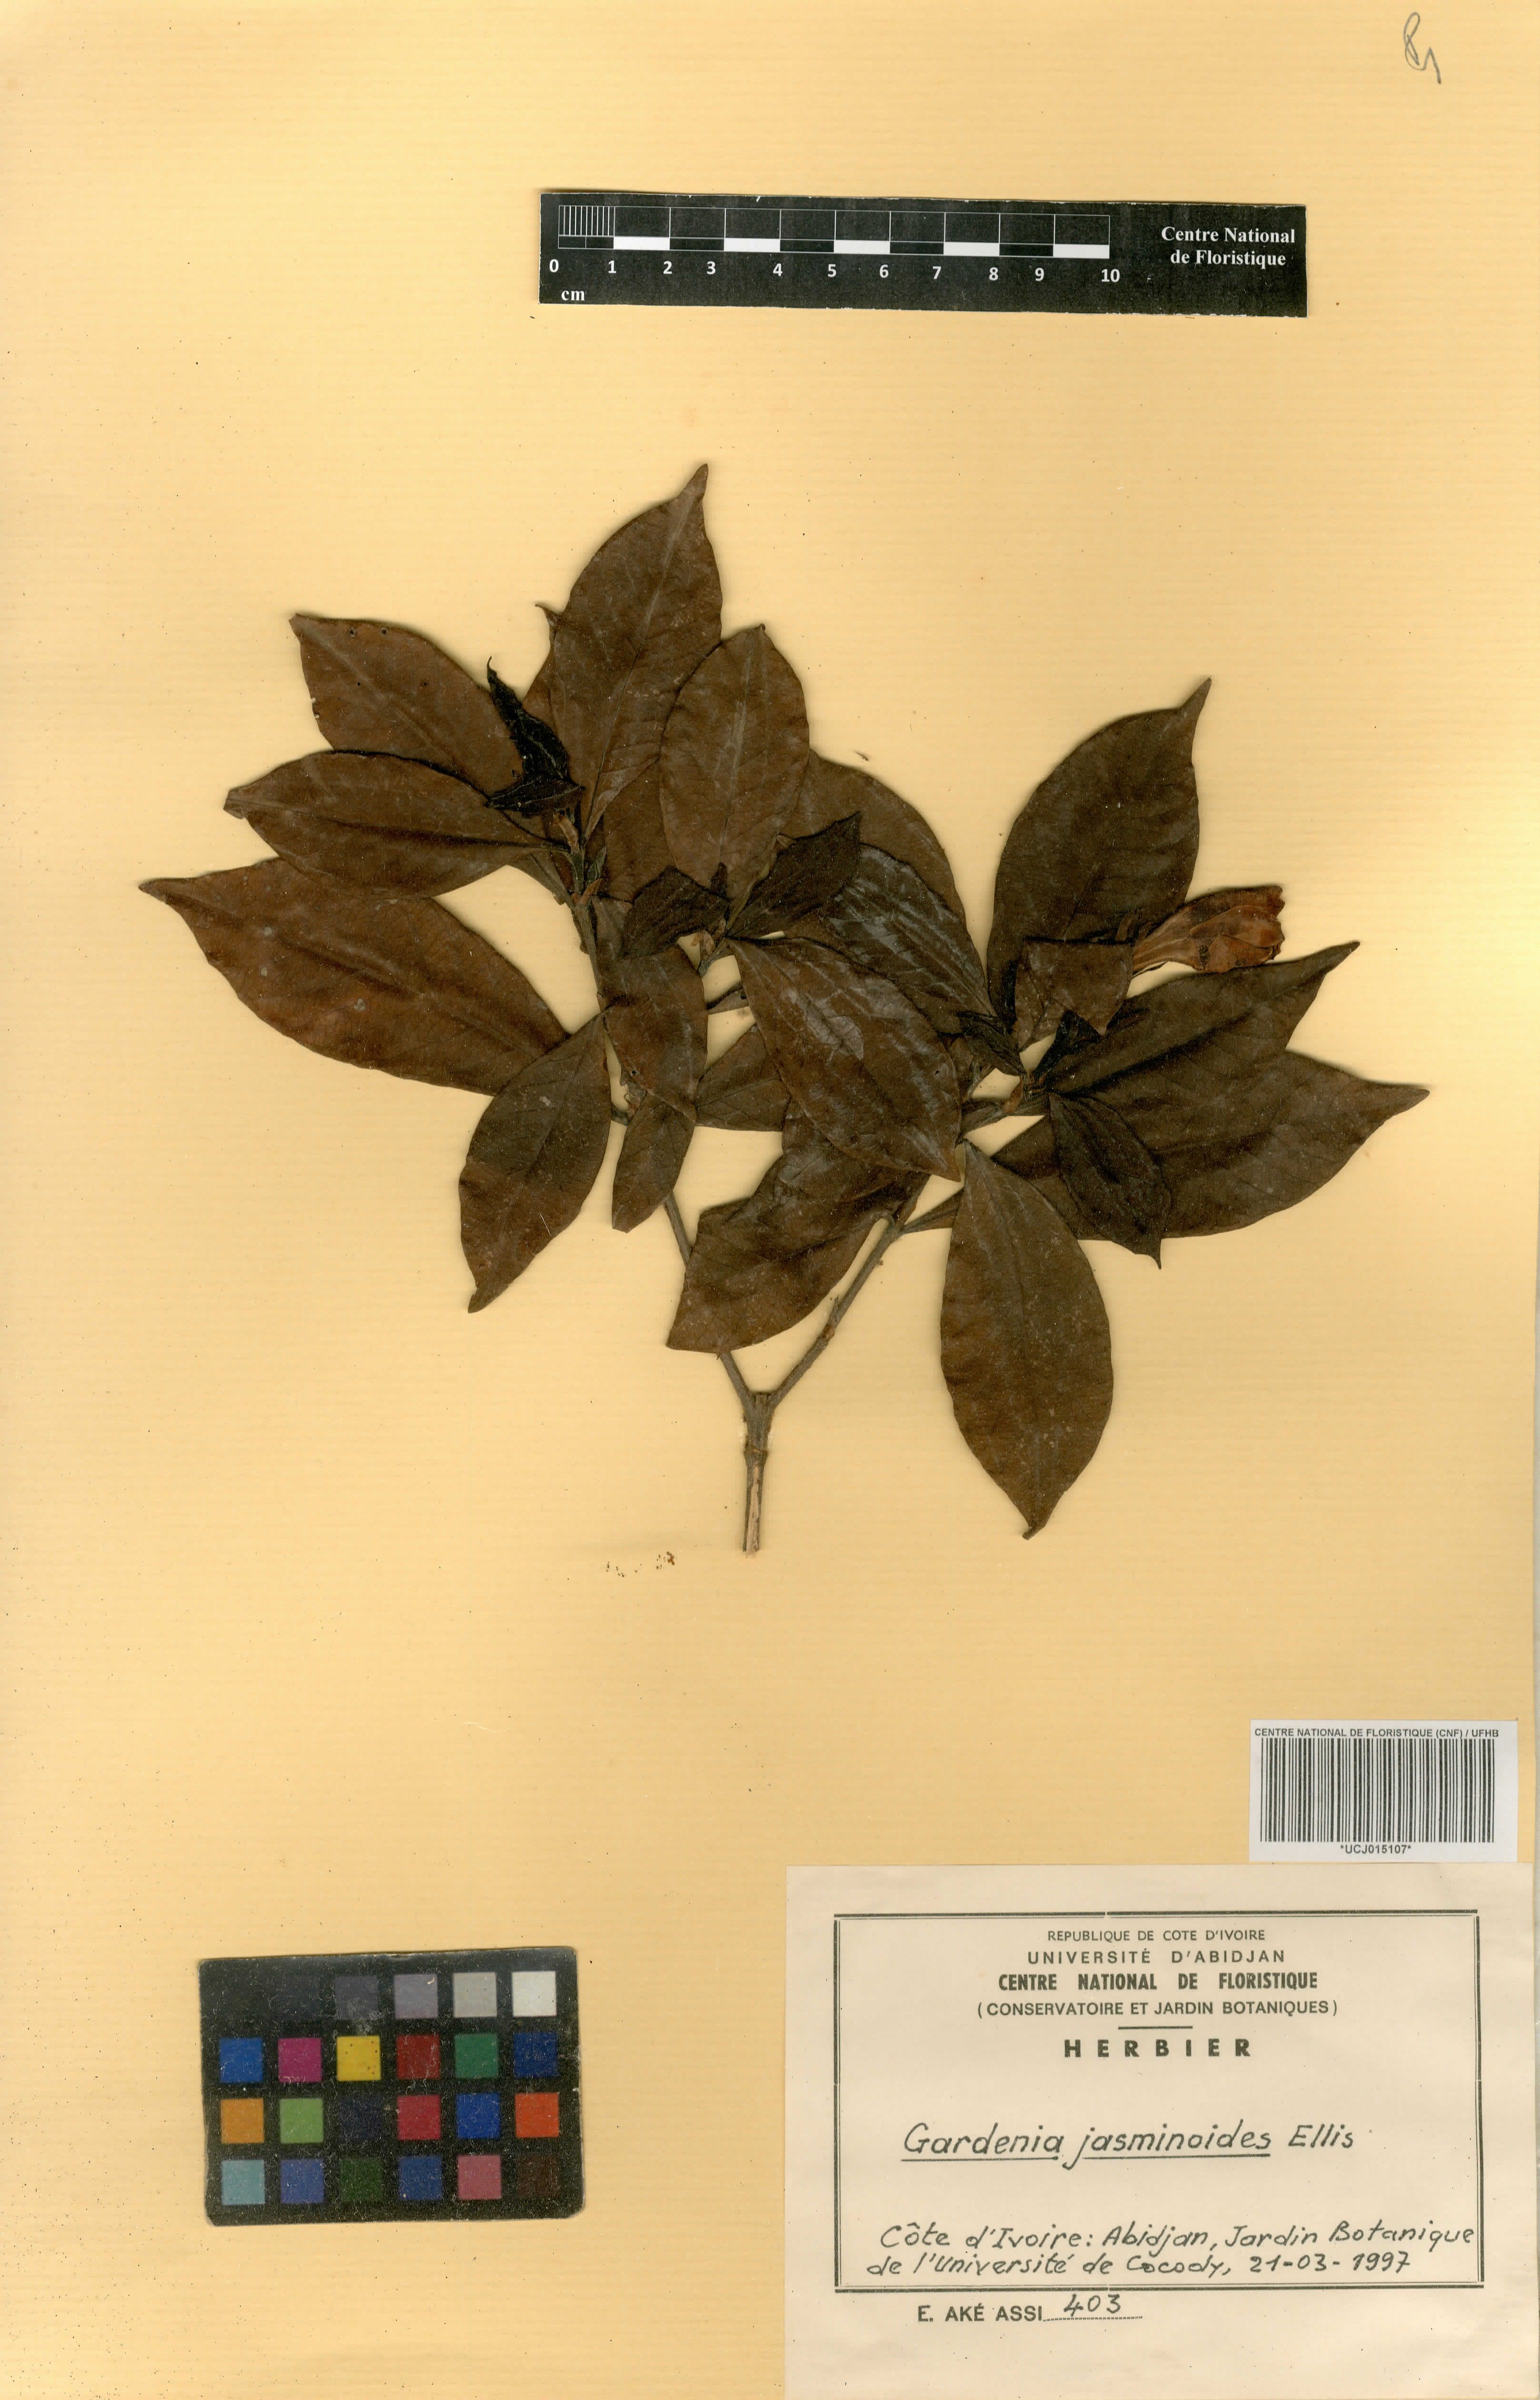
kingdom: Plantae
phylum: Tracheophyta
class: Magnoliopsida
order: Gentianales
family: Rubiaceae
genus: Gardenia
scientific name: Gardenia jasminoides
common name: Cape-jasmine
